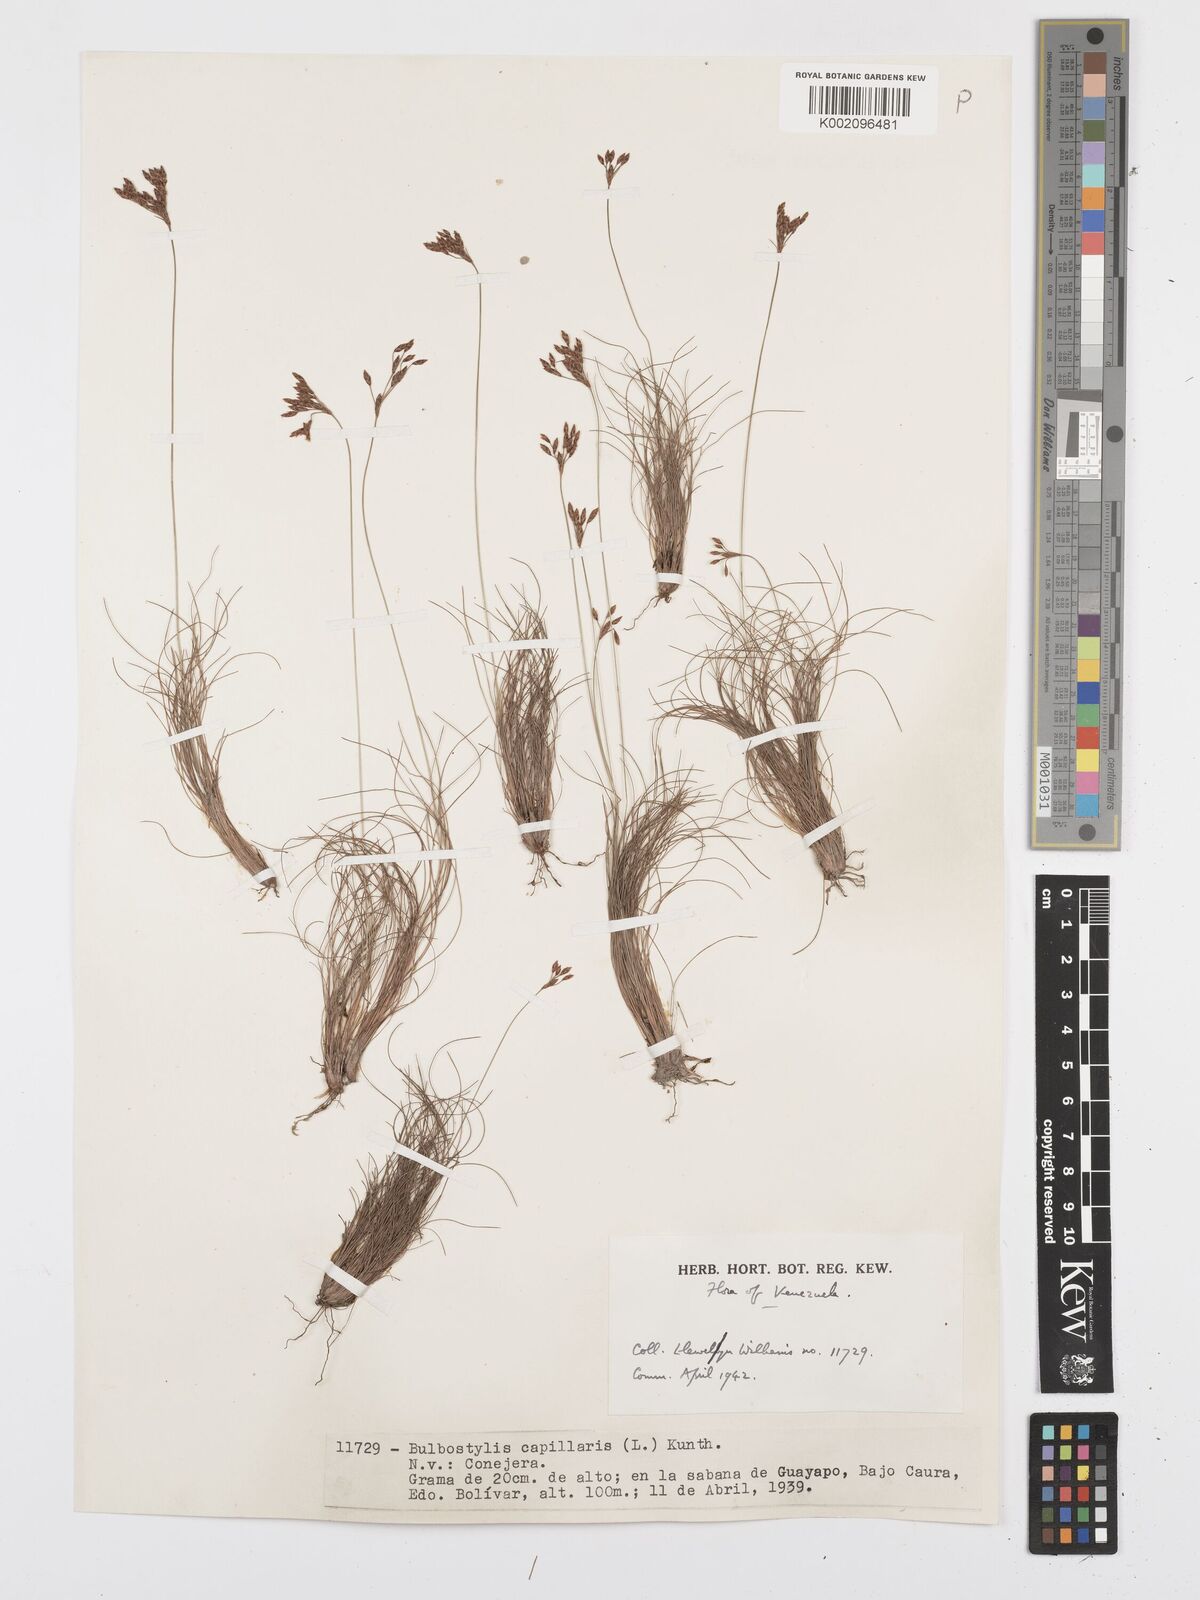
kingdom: Plantae
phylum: Tracheophyta
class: Liliopsida
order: Poales
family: Cyperaceae
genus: Bulbostylis
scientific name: Bulbostylis circinata
